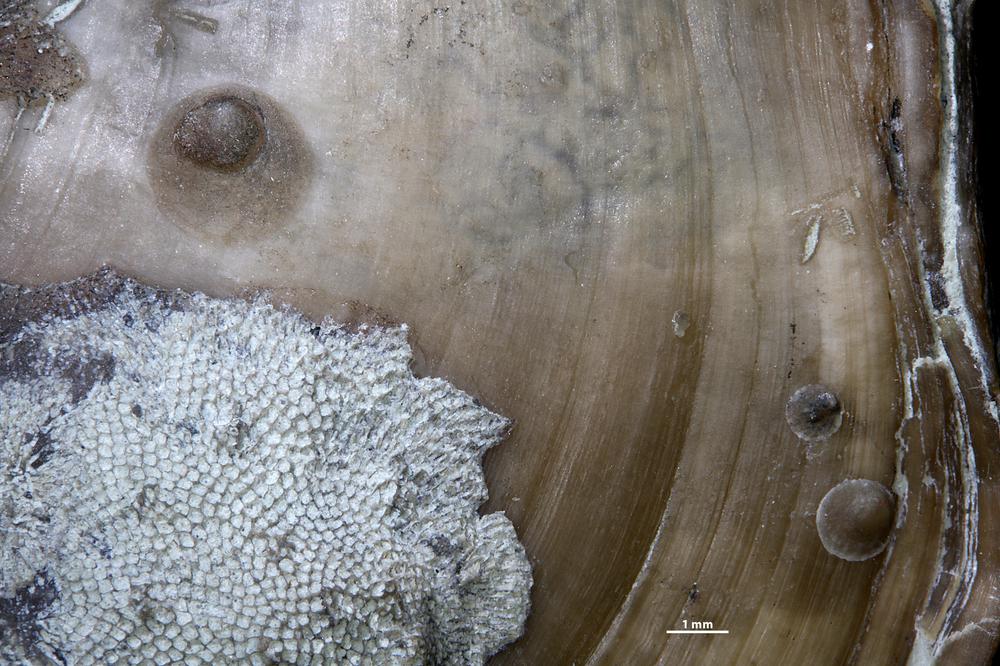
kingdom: Animalia
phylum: Brachiopoda
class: Craniata
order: Craniida
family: Craniidae
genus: Petrocrania
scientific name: Petrocrania
